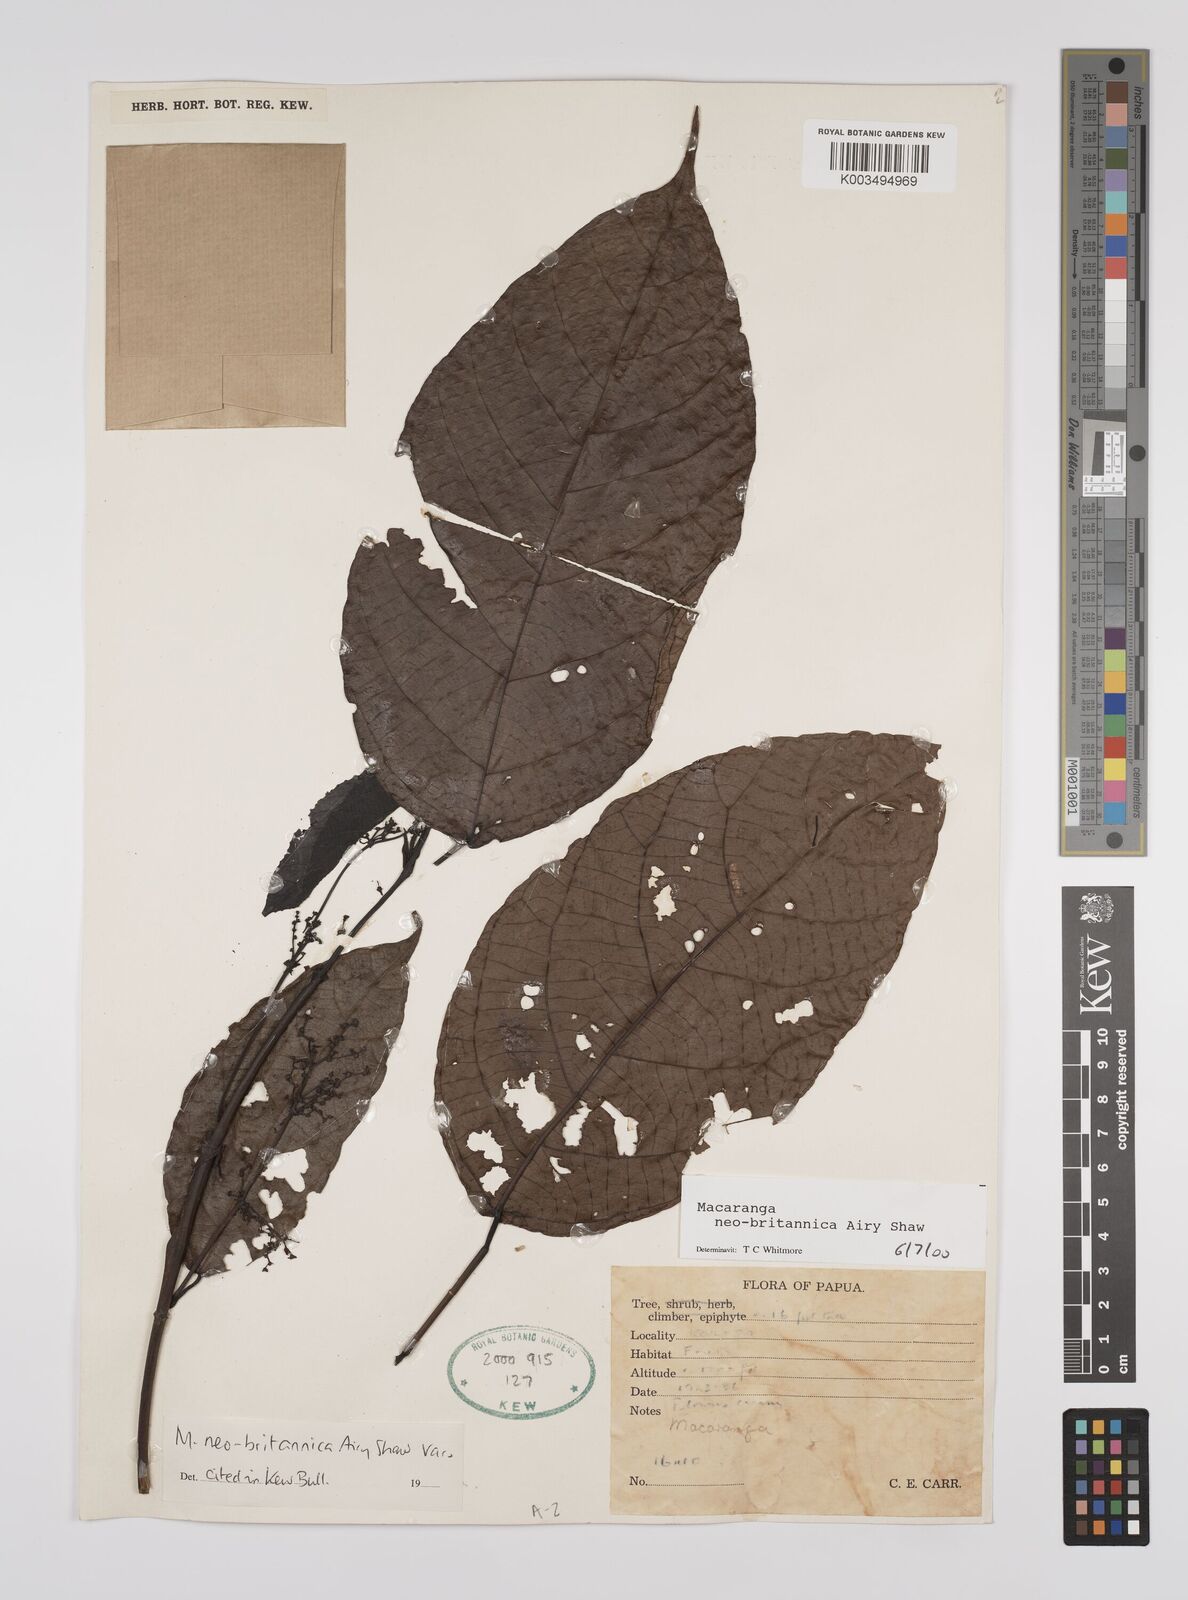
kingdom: Plantae
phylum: Tracheophyta
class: Magnoliopsida
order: Malpighiales
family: Euphorbiaceae
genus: Macaranga
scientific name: Macaranga neobritannica
